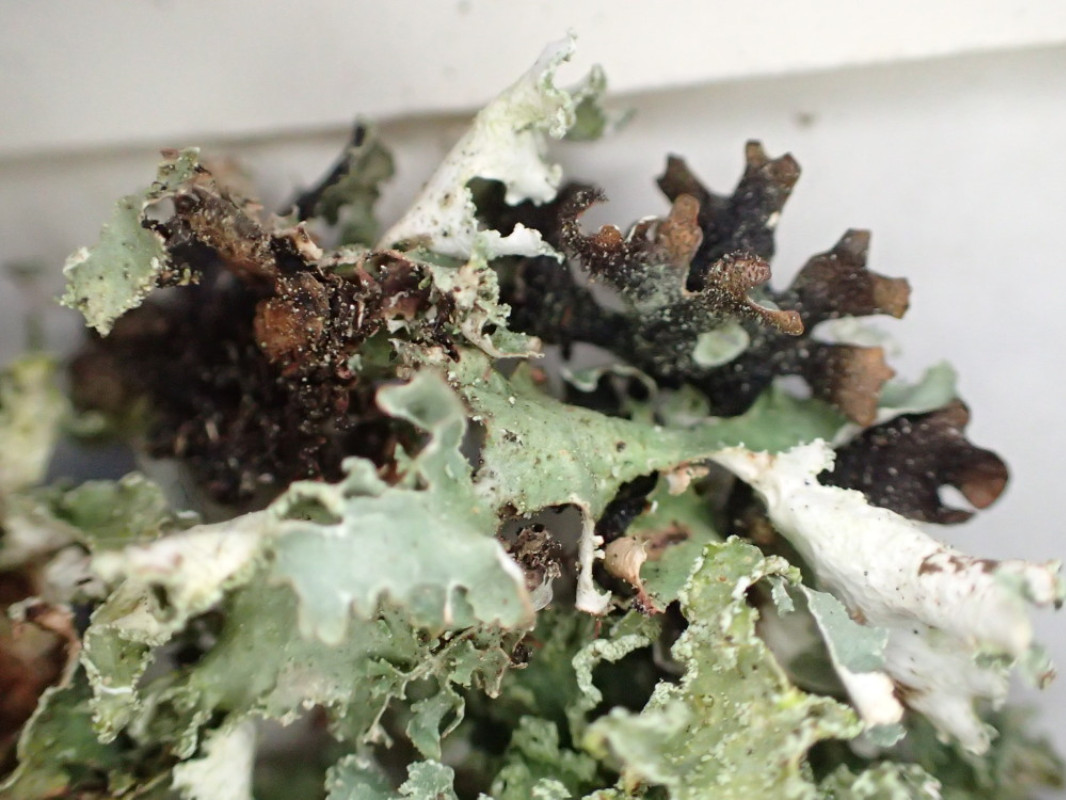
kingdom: Fungi
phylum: Ascomycota
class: Lecanoromycetes
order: Lecanorales
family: Parmeliaceae
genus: Parmelia
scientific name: Parmelia sulcata
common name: rynket skållav
